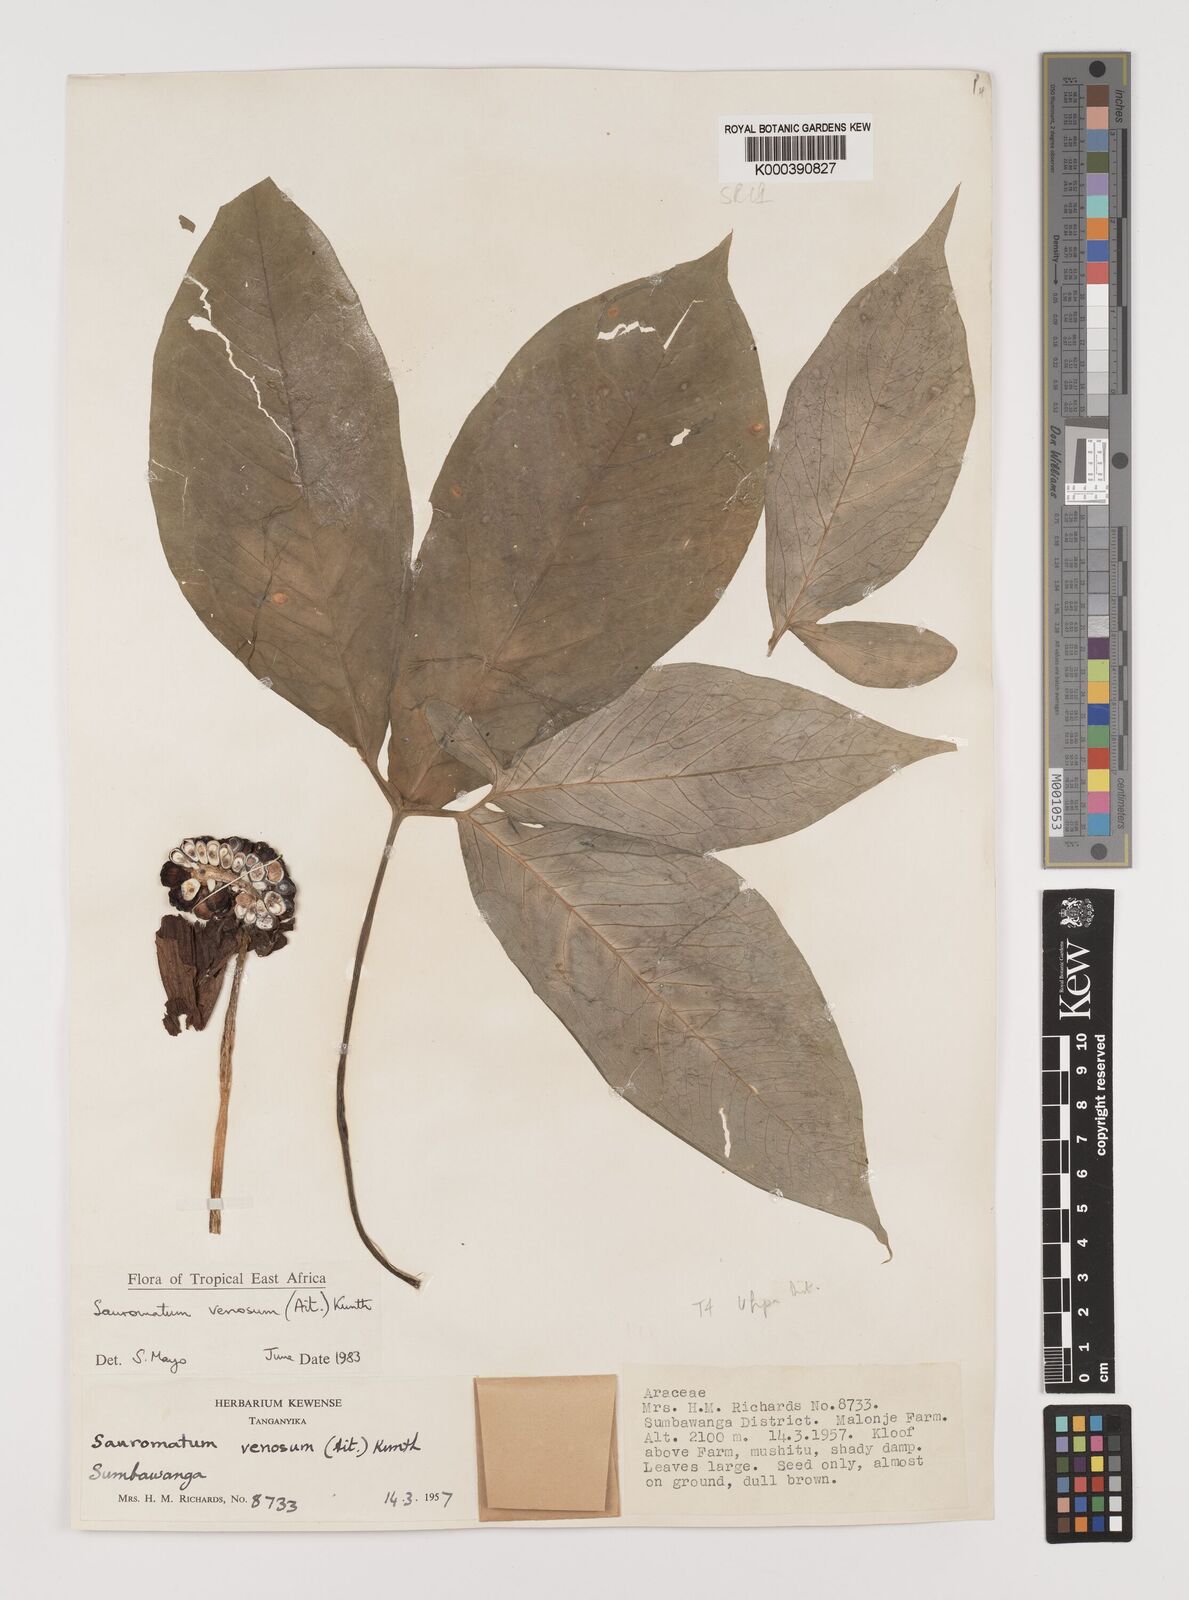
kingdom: Plantae
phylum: Tracheophyta
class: Liliopsida
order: Alismatales
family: Araceae
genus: Sauromatum
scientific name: Sauromatum venosum
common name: Voodoo lily
